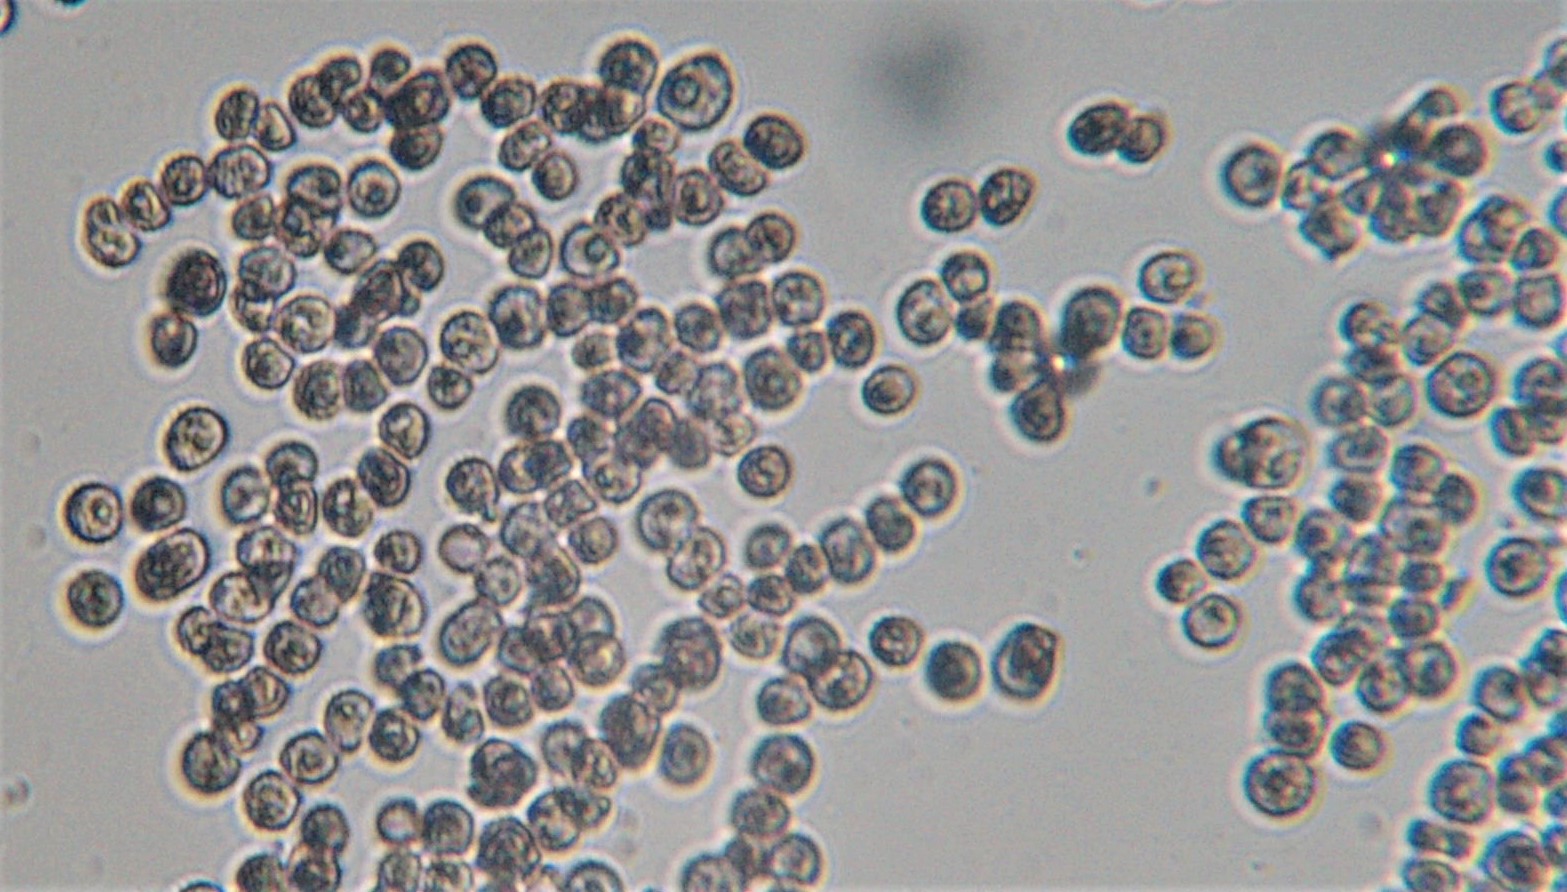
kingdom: Fungi
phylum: Basidiomycota
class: Microbotryomycetes
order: Microbotryales
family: Microbotryaceae
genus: Microbotryum
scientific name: Microbotryum stellariae
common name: fladstjerne-støvbladrust
